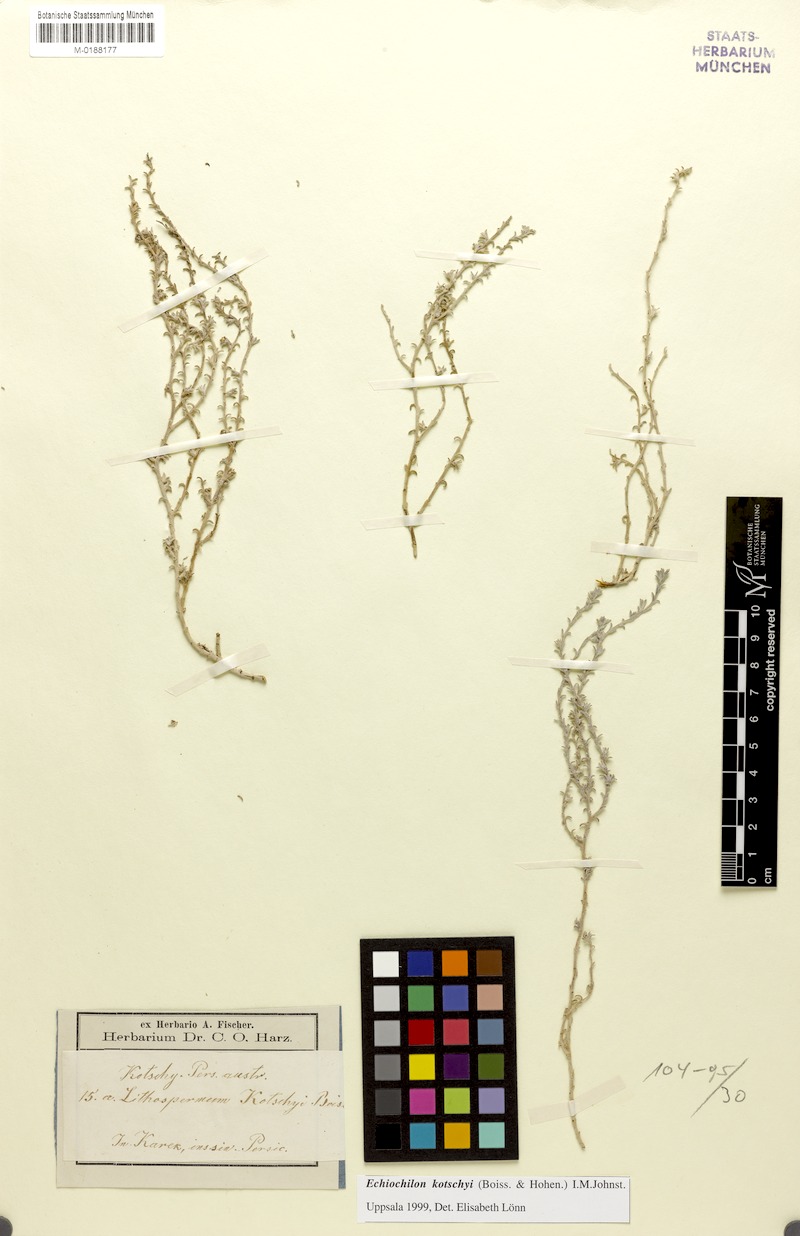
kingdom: Plantae
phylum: Tracheophyta
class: Magnoliopsida
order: Boraginales
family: Boraginaceae
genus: Echiochilon
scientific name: Echiochilon kotschyi
